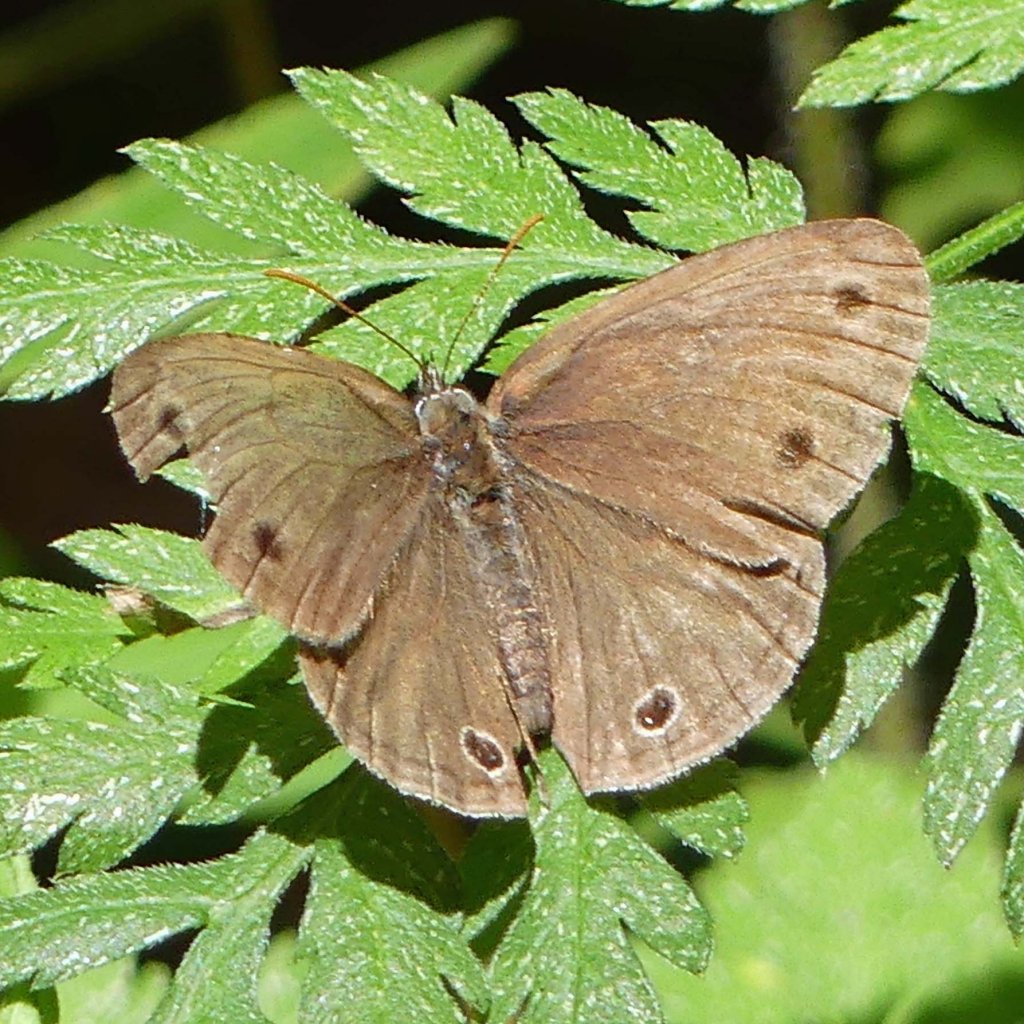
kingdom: Animalia
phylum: Arthropoda
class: Insecta
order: Lepidoptera
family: Nymphalidae
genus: Euptychia
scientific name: Euptychia cymela
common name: Little Wood Satyr
